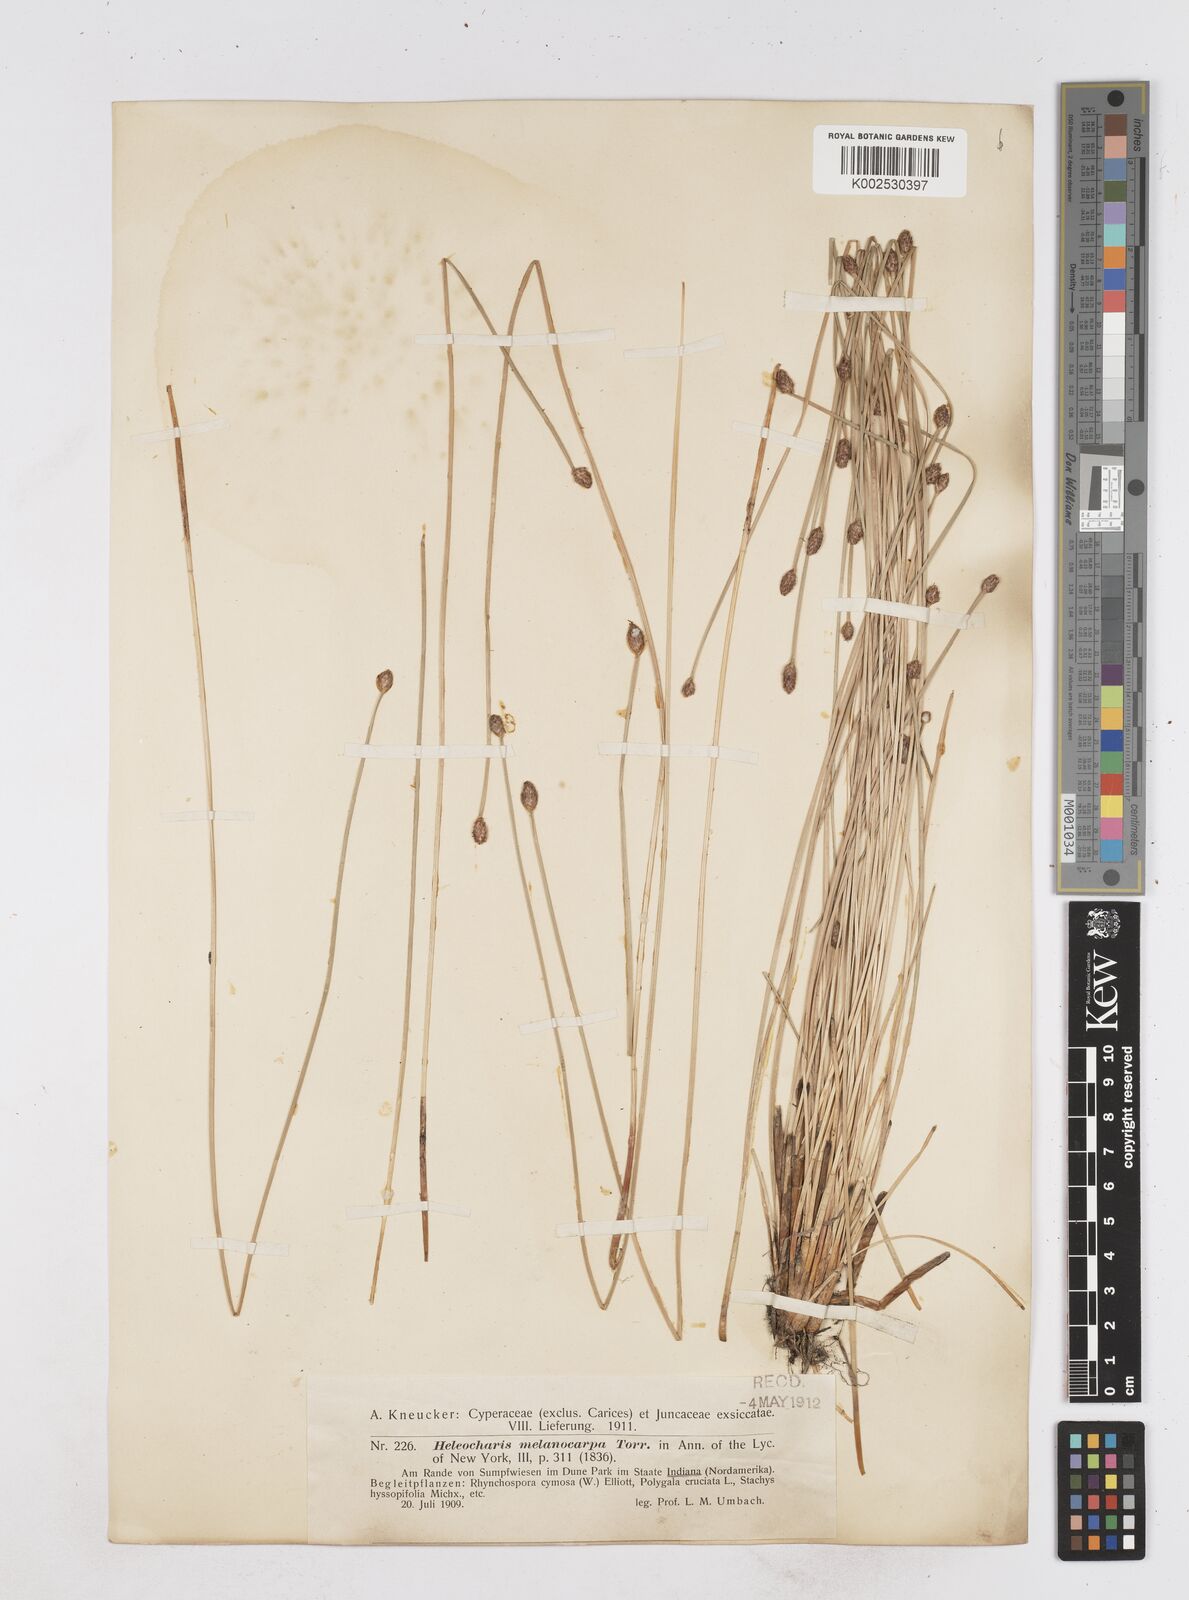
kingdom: Plantae
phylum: Tracheophyta
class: Liliopsida
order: Poales
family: Cyperaceae
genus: Eleocharis
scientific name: Eleocharis melanocarpa
